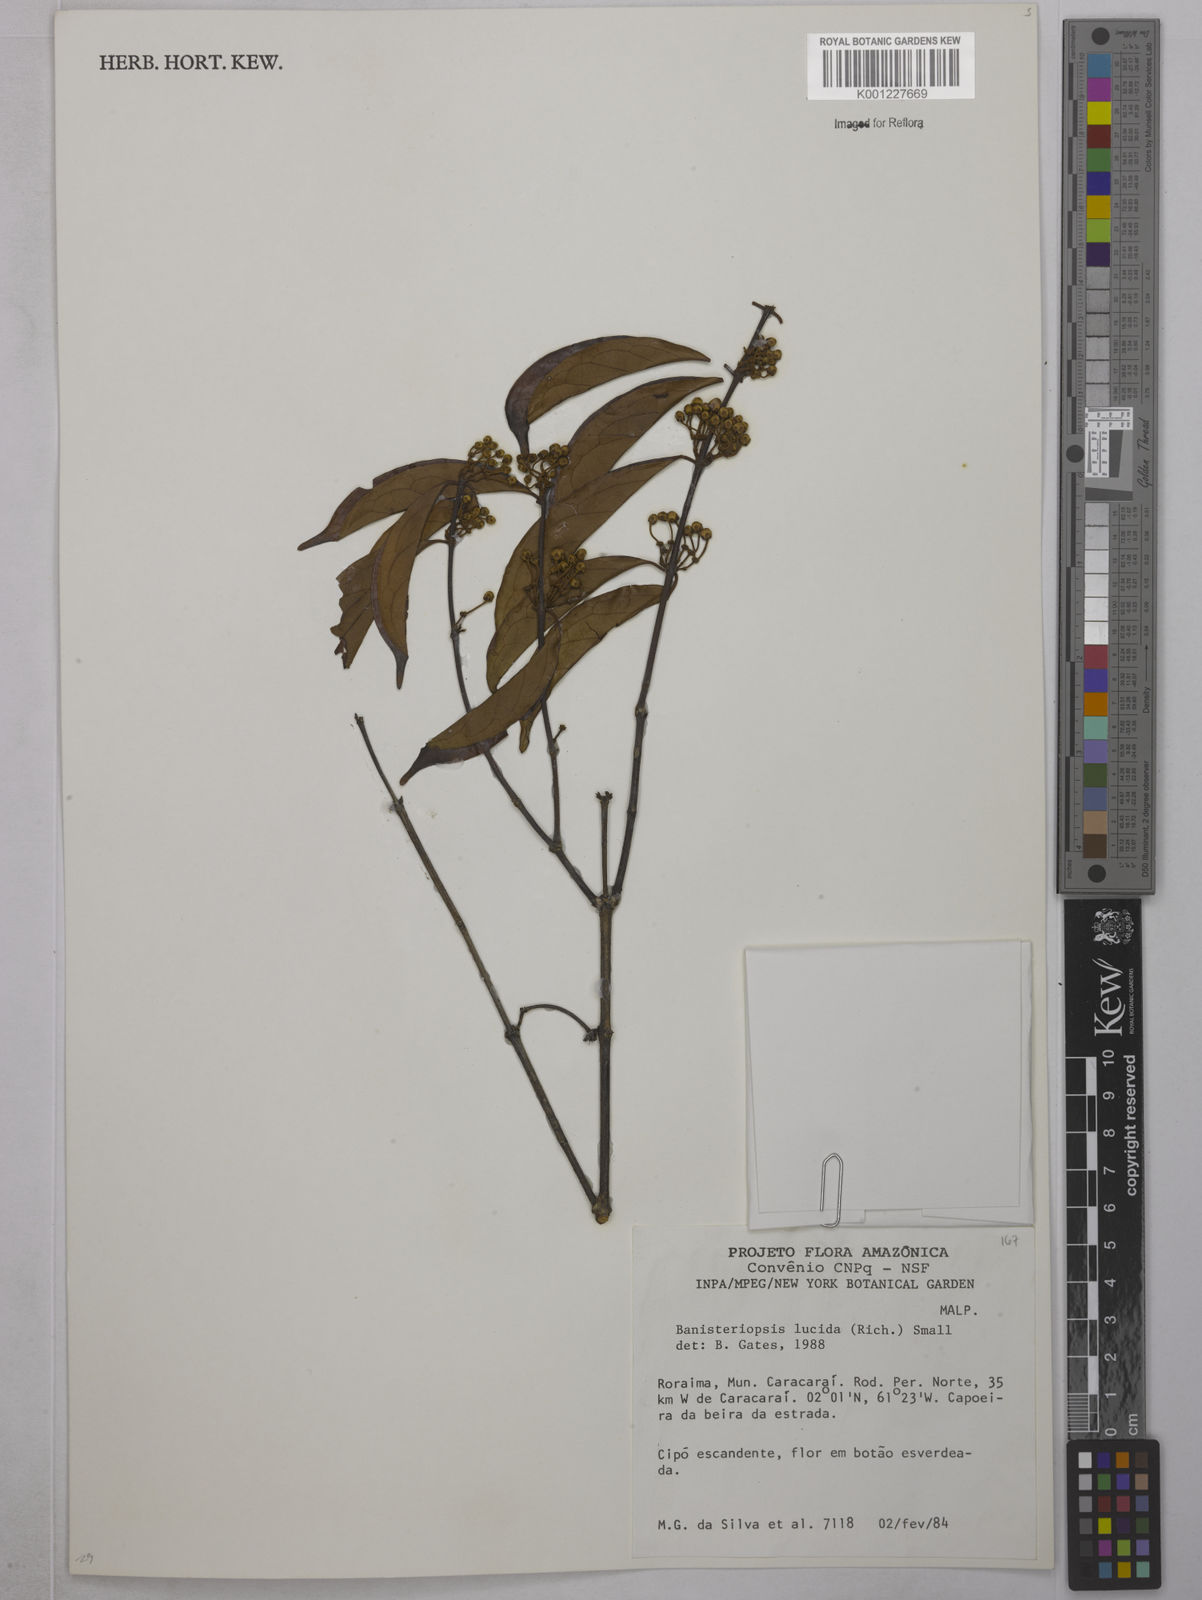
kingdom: Plantae
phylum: Tracheophyta
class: Magnoliopsida
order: Malpighiales
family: Malpighiaceae
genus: Diplopterys
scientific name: Diplopterys lucida
